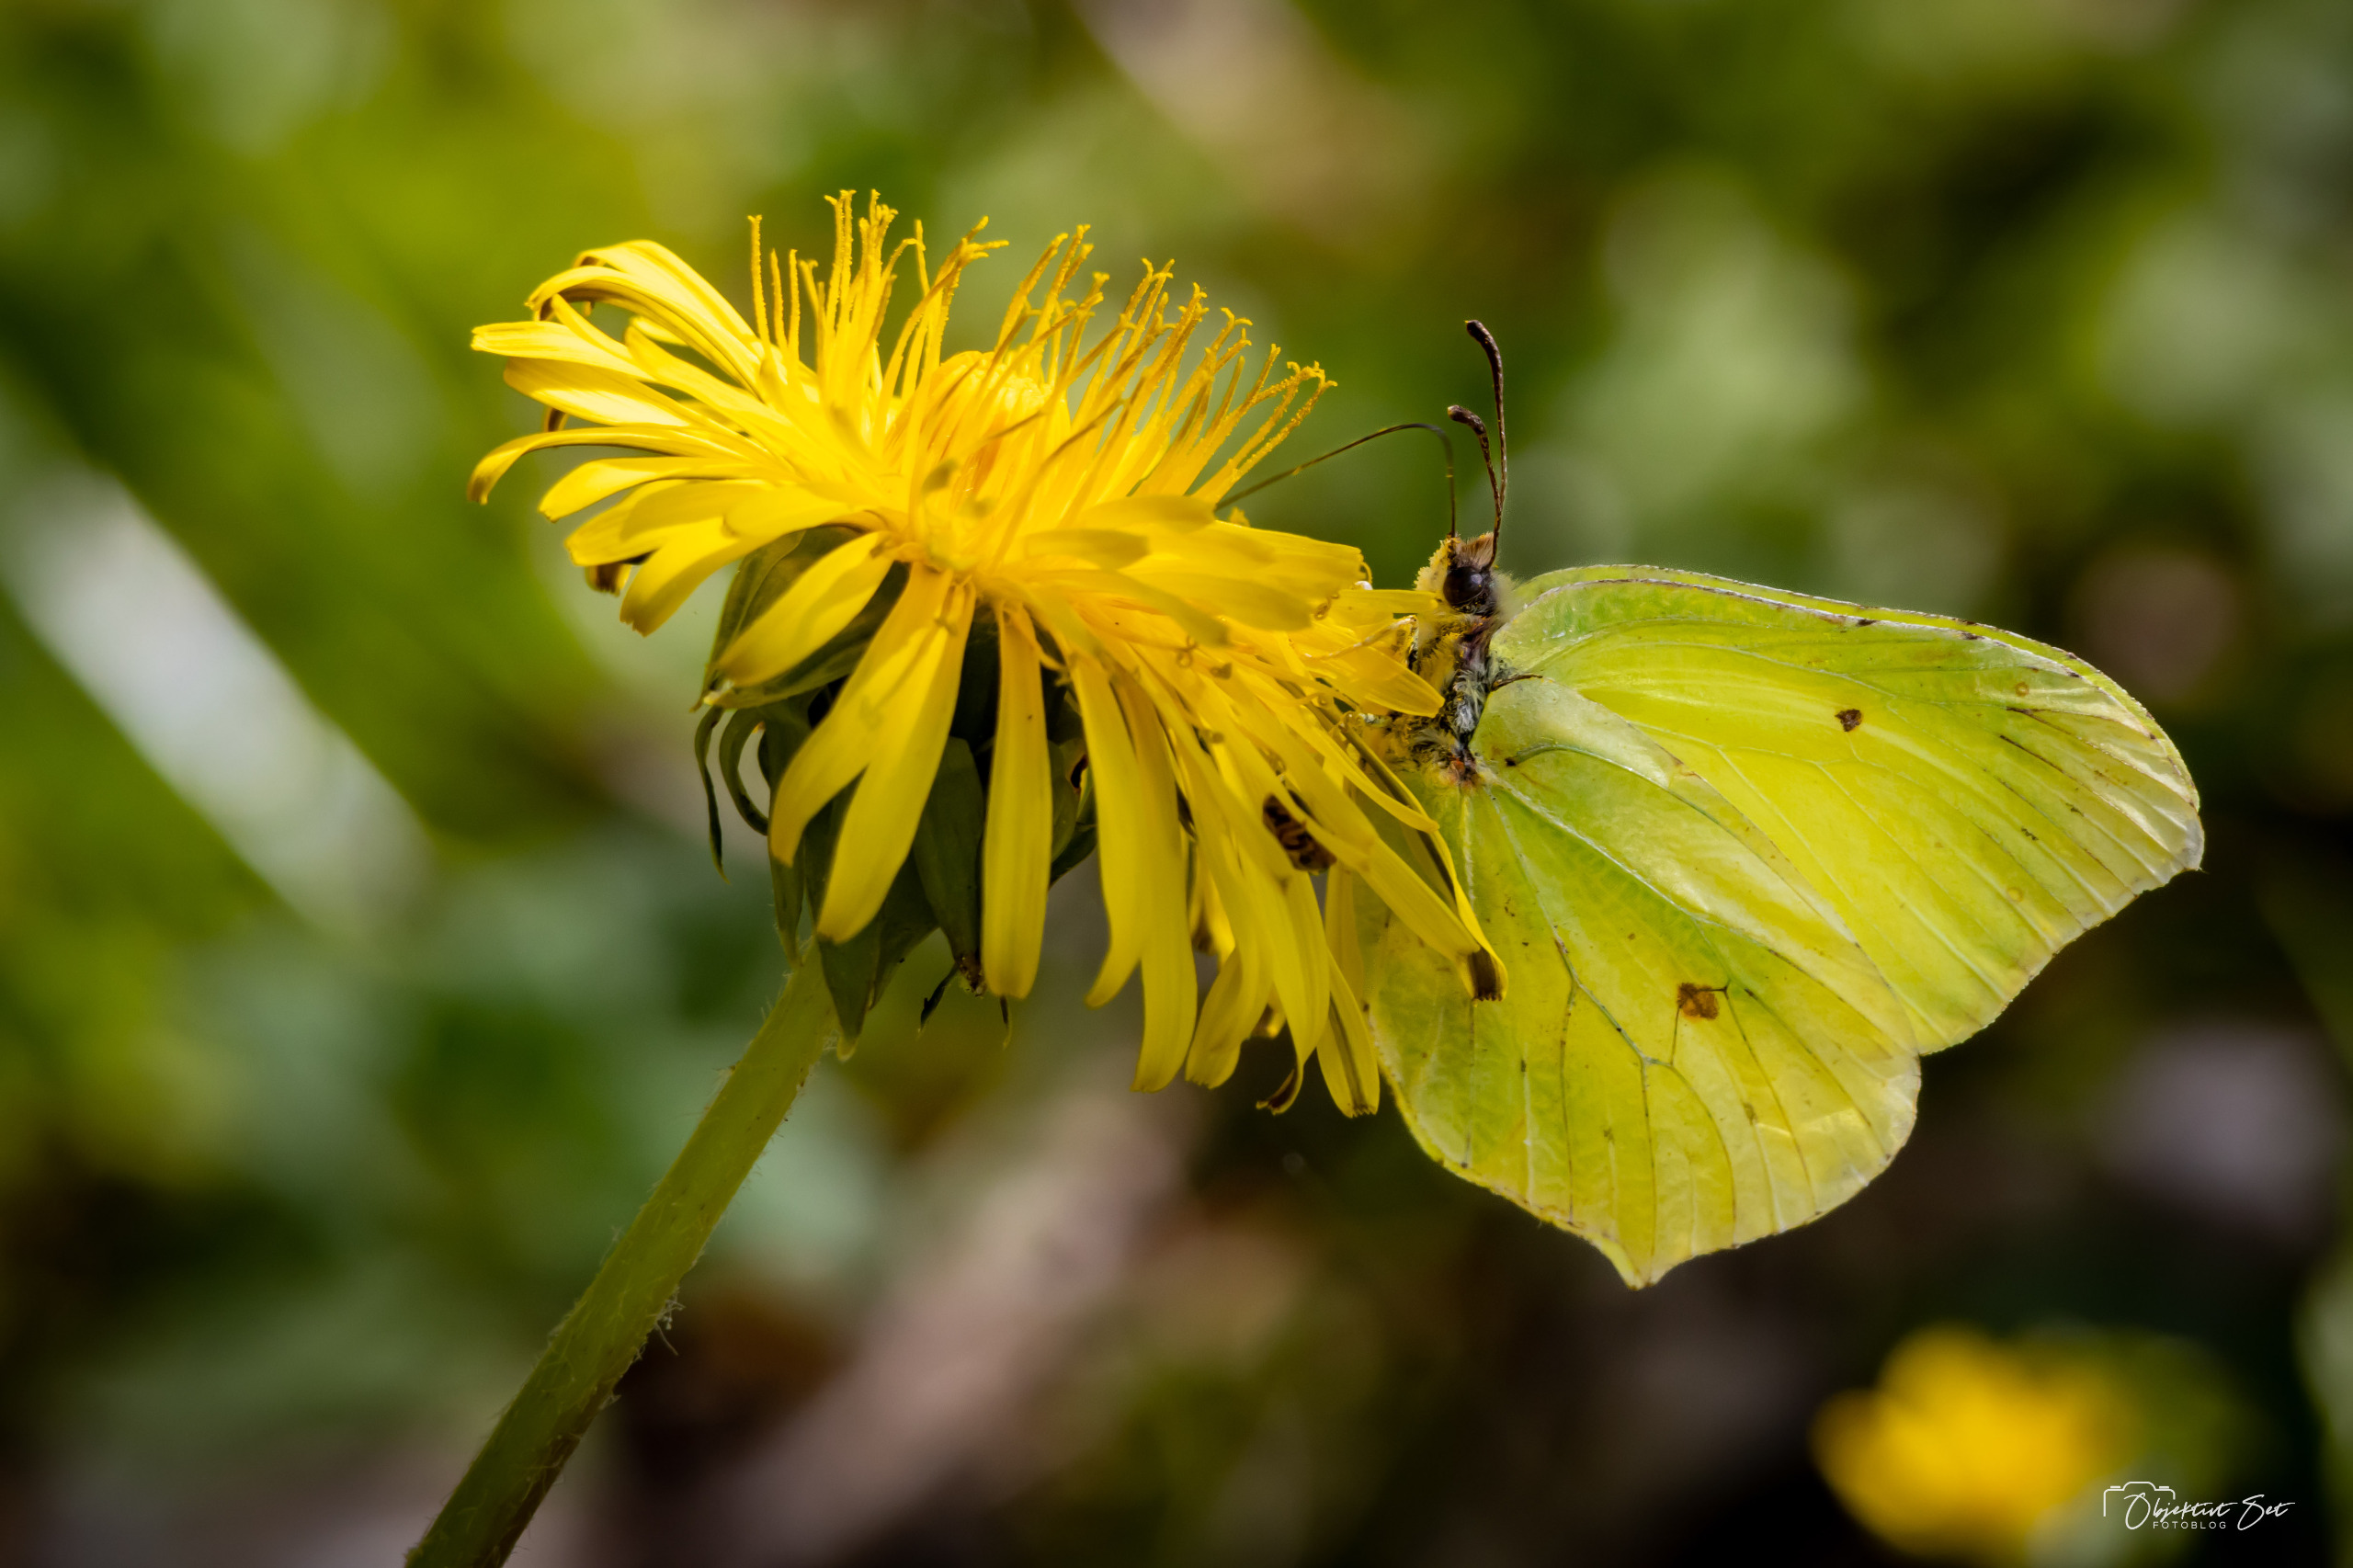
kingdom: Animalia
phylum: Arthropoda
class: Insecta
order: Lepidoptera
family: Pieridae
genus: Gonepteryx
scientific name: Gonepteryx rhamni
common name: Citronsommerfugl
